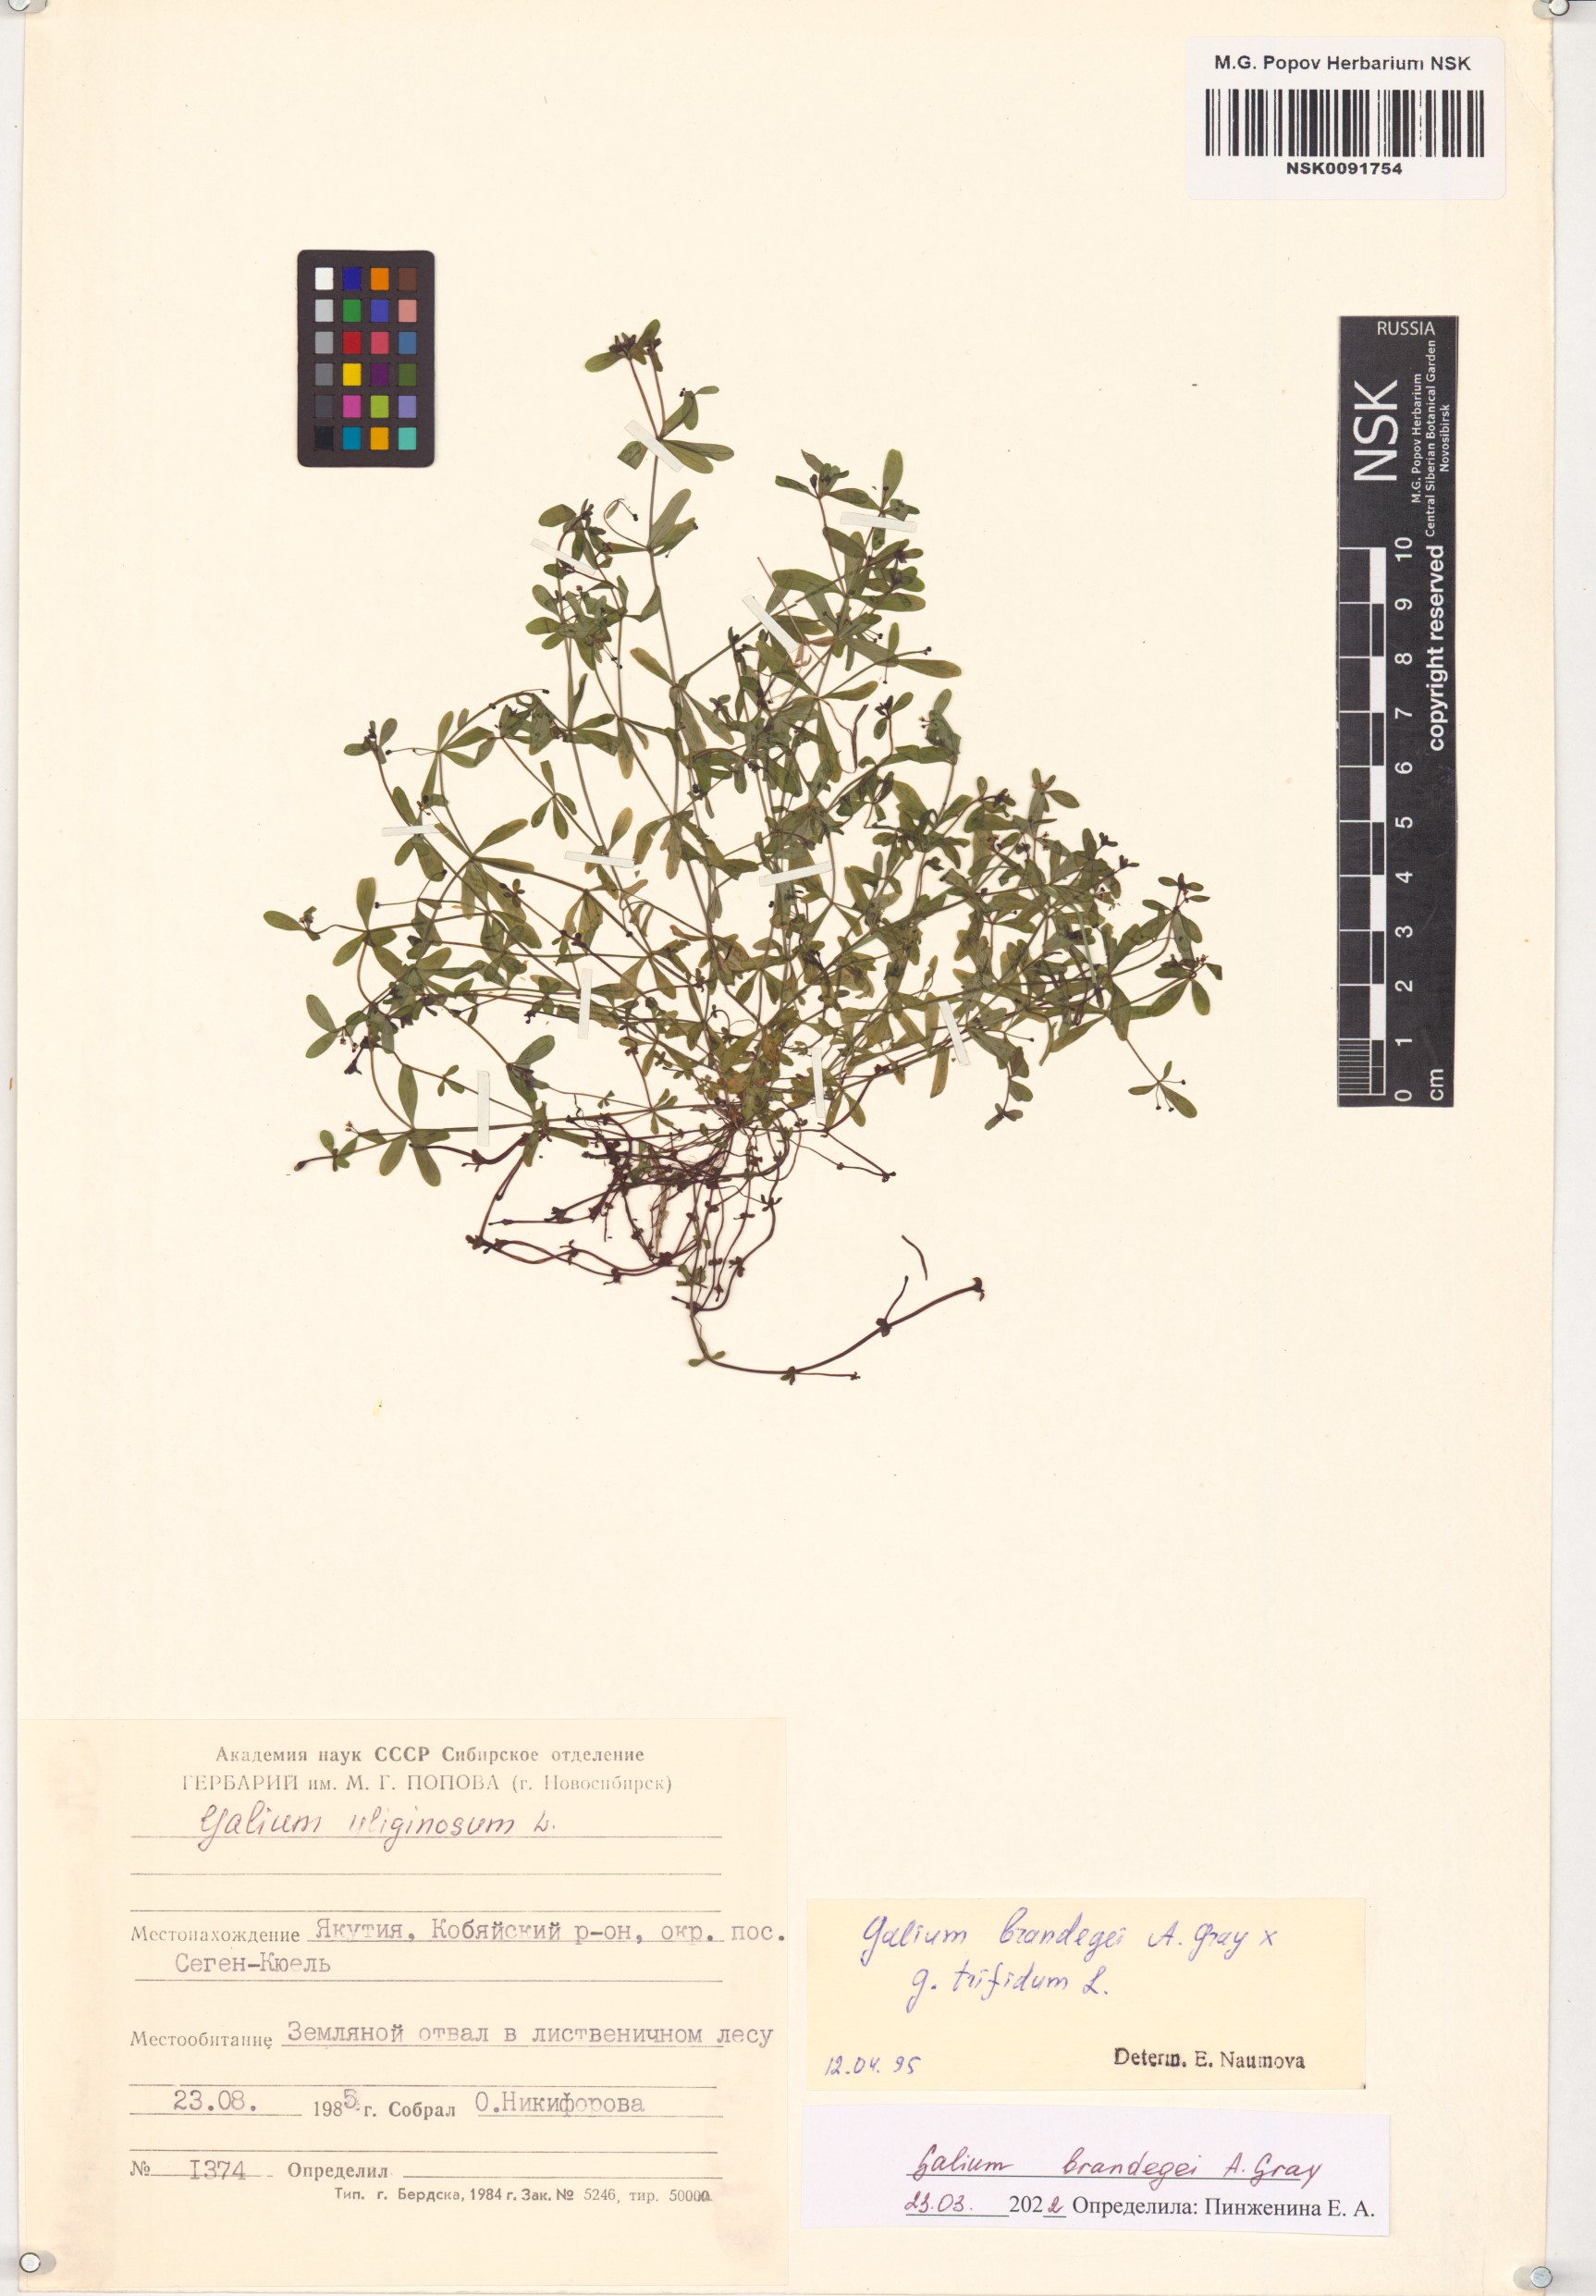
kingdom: Plantae
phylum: Tracheophyta
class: Magnoliopsida
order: Gentianales
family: Rubiaceae
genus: Galium
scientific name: Galium trifidum
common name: Small bedstraw
